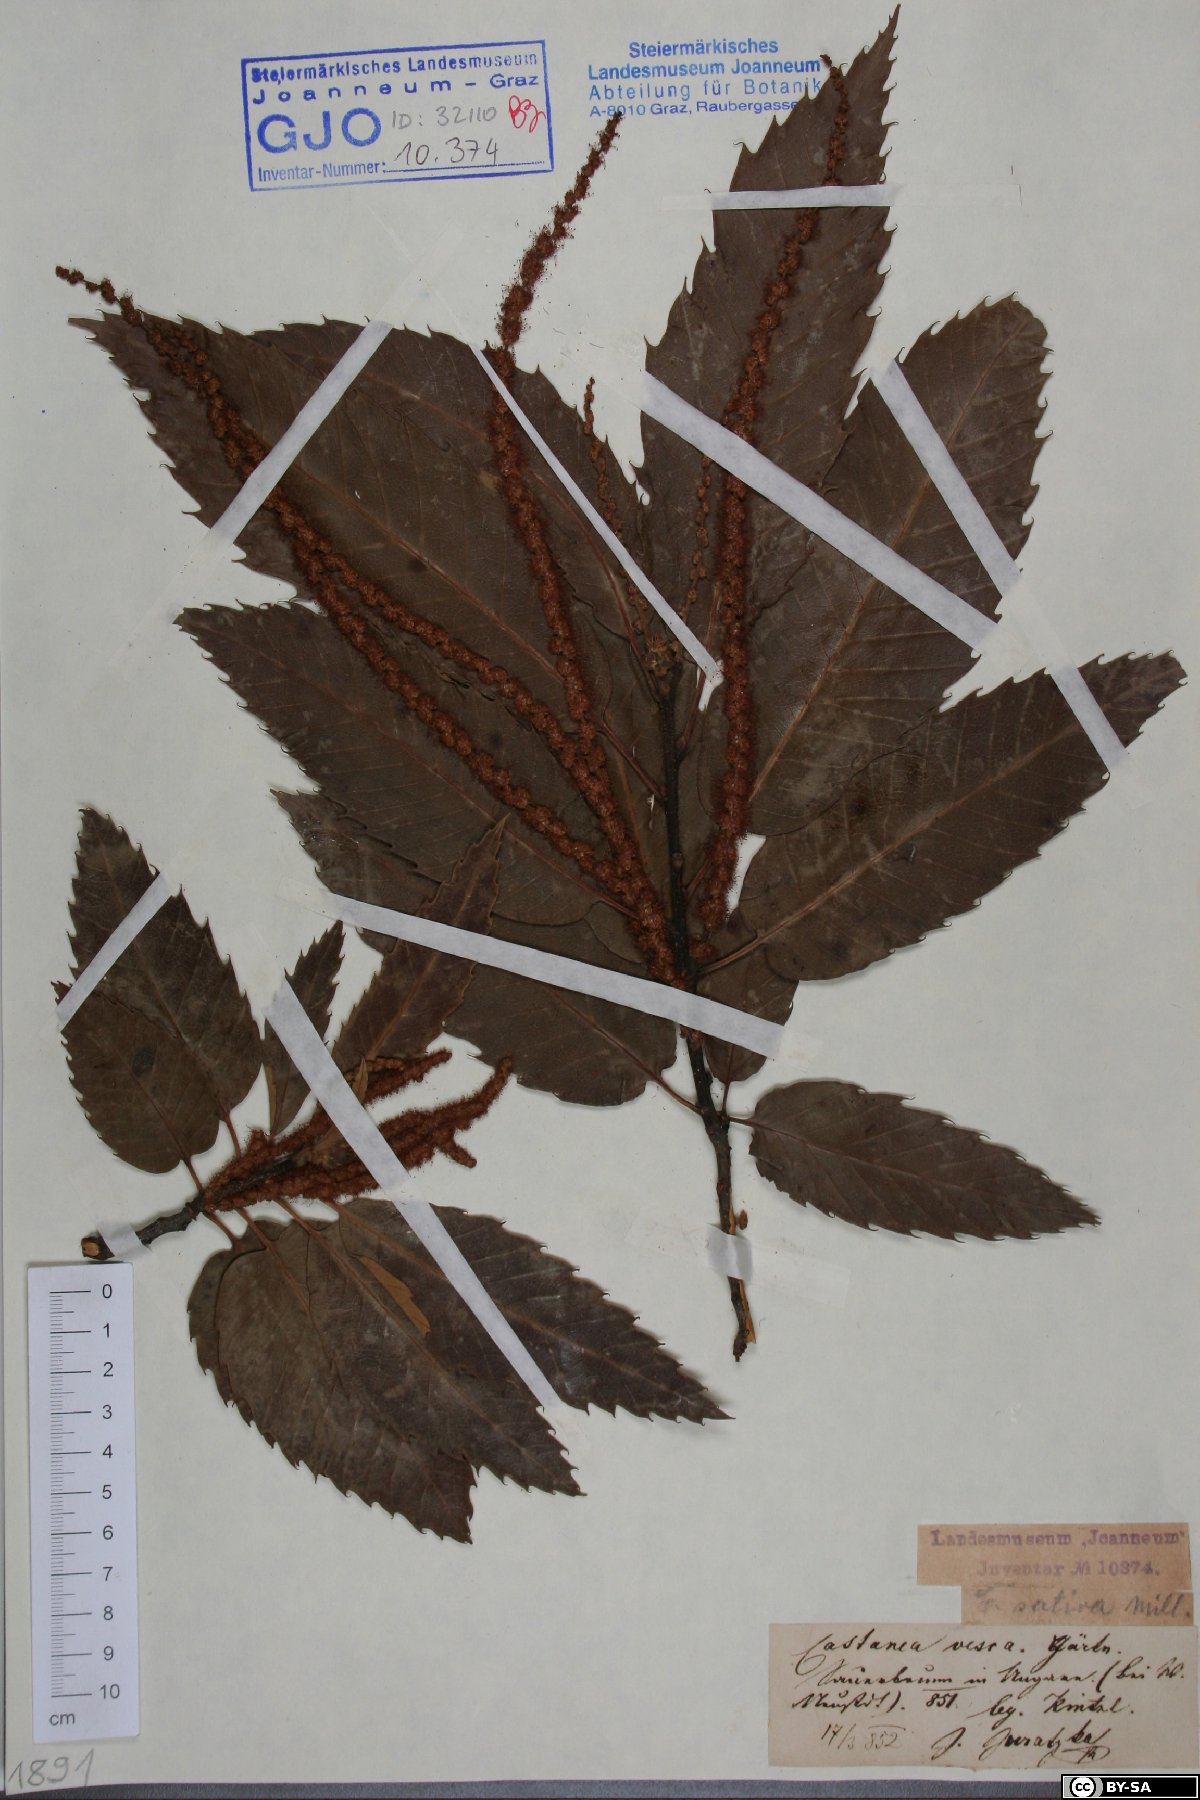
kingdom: Plantae
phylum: Tracheophyta
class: Magnoliopsida
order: Fagales
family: Fagaceae
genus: Castanea
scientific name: Castanea sativa
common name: Sweet chestnut
